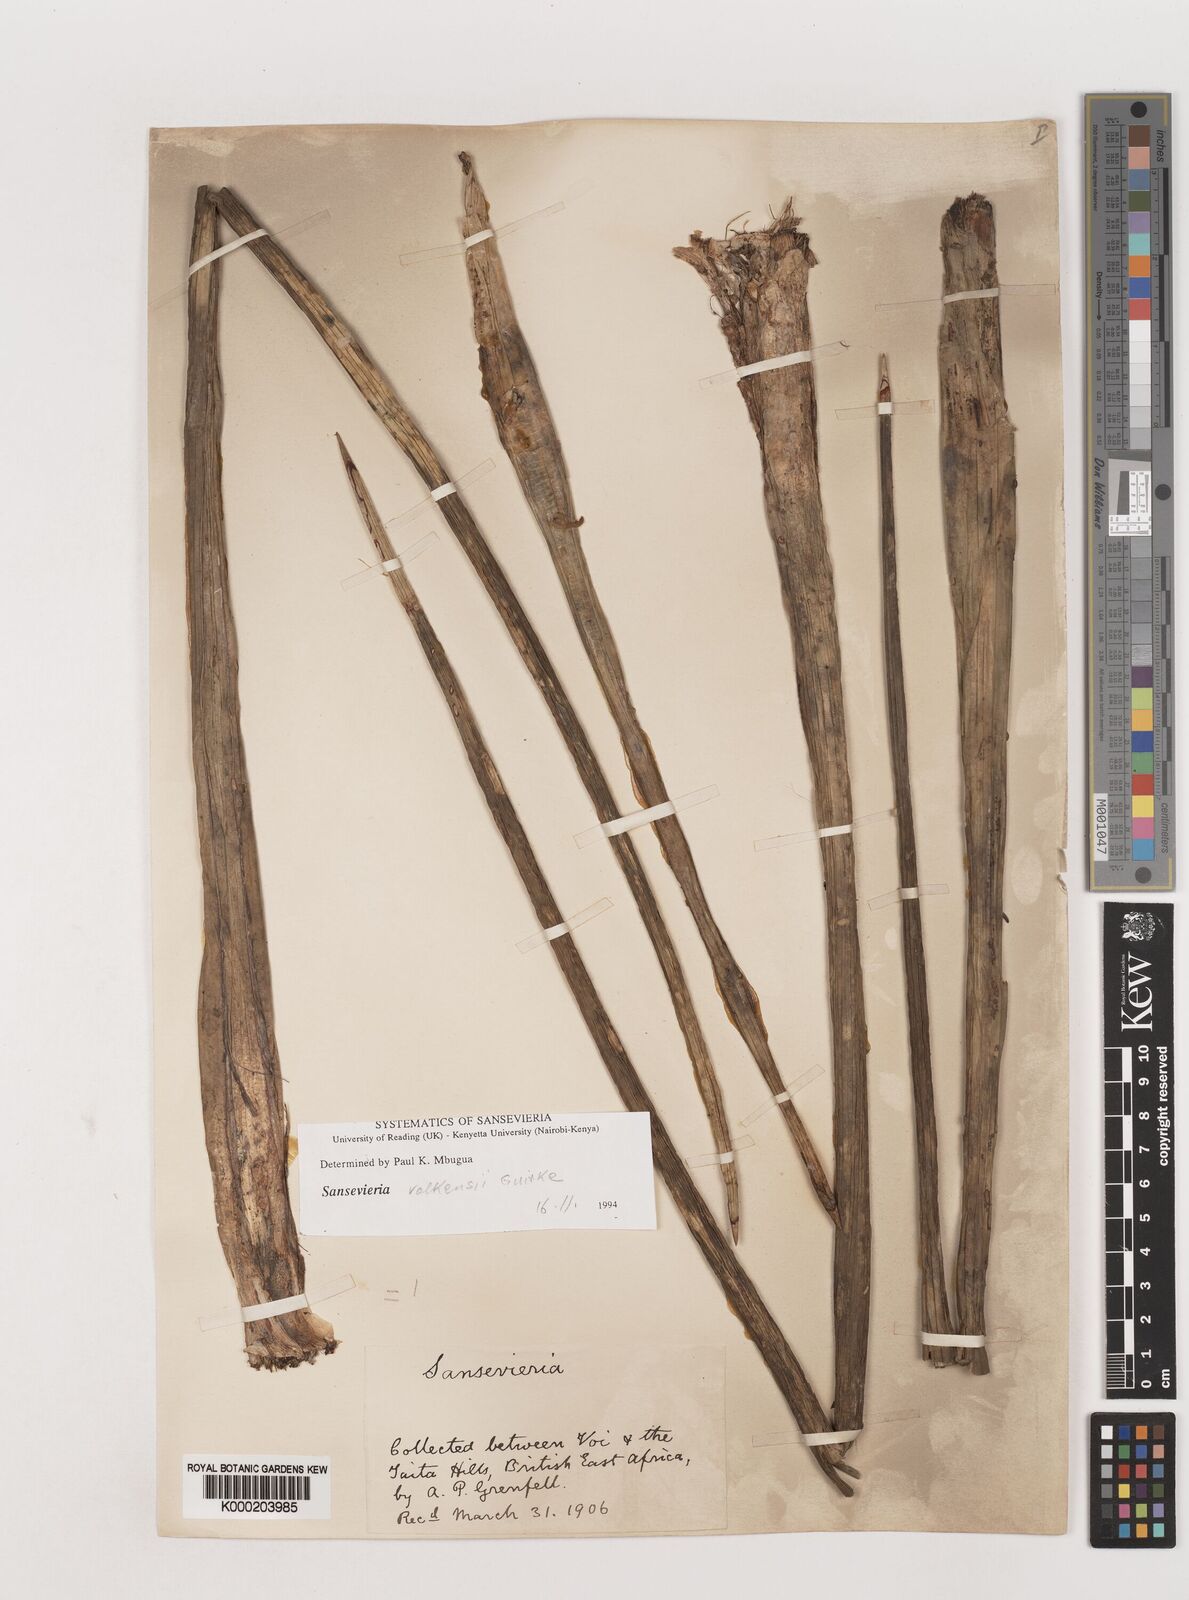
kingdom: Plantae
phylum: Tracheophyta
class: Liliopsida
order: Asparagales
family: Asparagaceae
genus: Dracaena
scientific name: Dracaena
